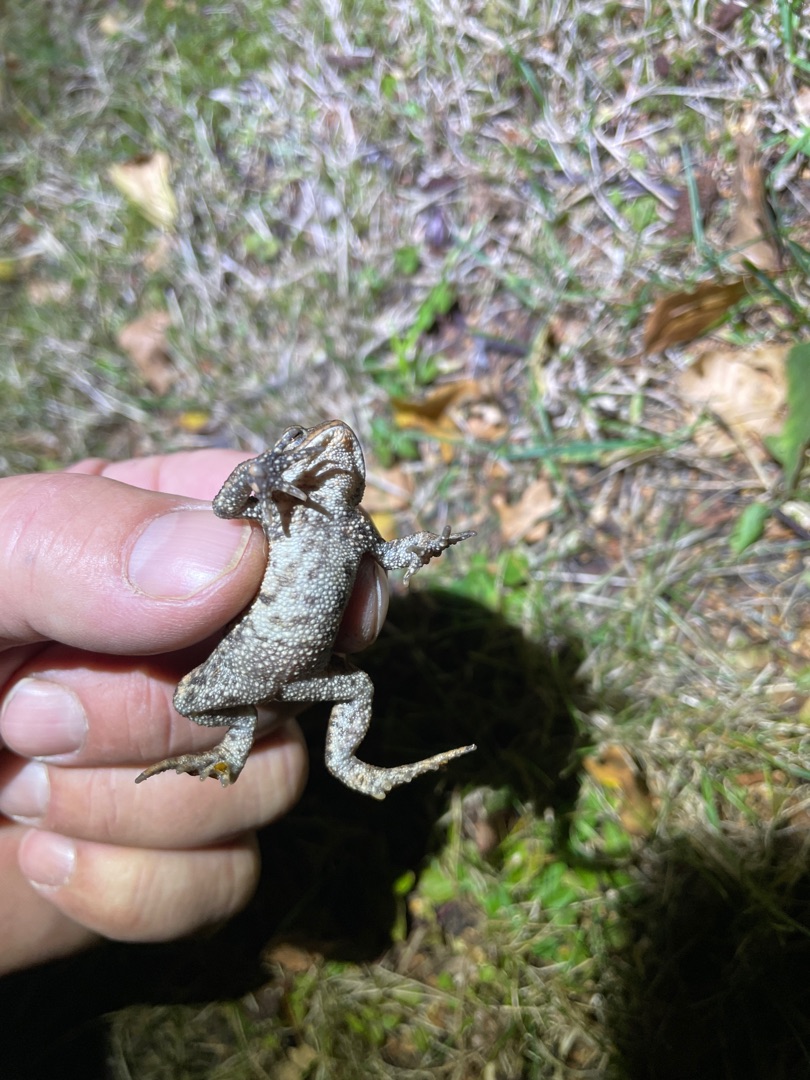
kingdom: Animalia
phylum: Chordata
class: Amphibia
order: Anura
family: Bufonidae
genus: Bufo
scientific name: Bufo bufo
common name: Skrubtudse
